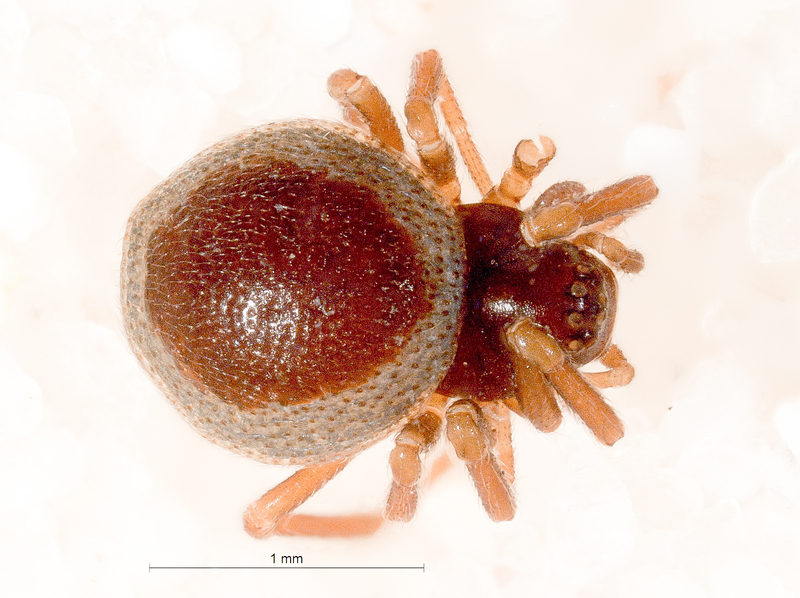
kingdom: Animalia
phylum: Arthropoda
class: Arachnida
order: Araneae
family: Linyphiidae
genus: Ceratinella
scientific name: Ceratinella brevis
